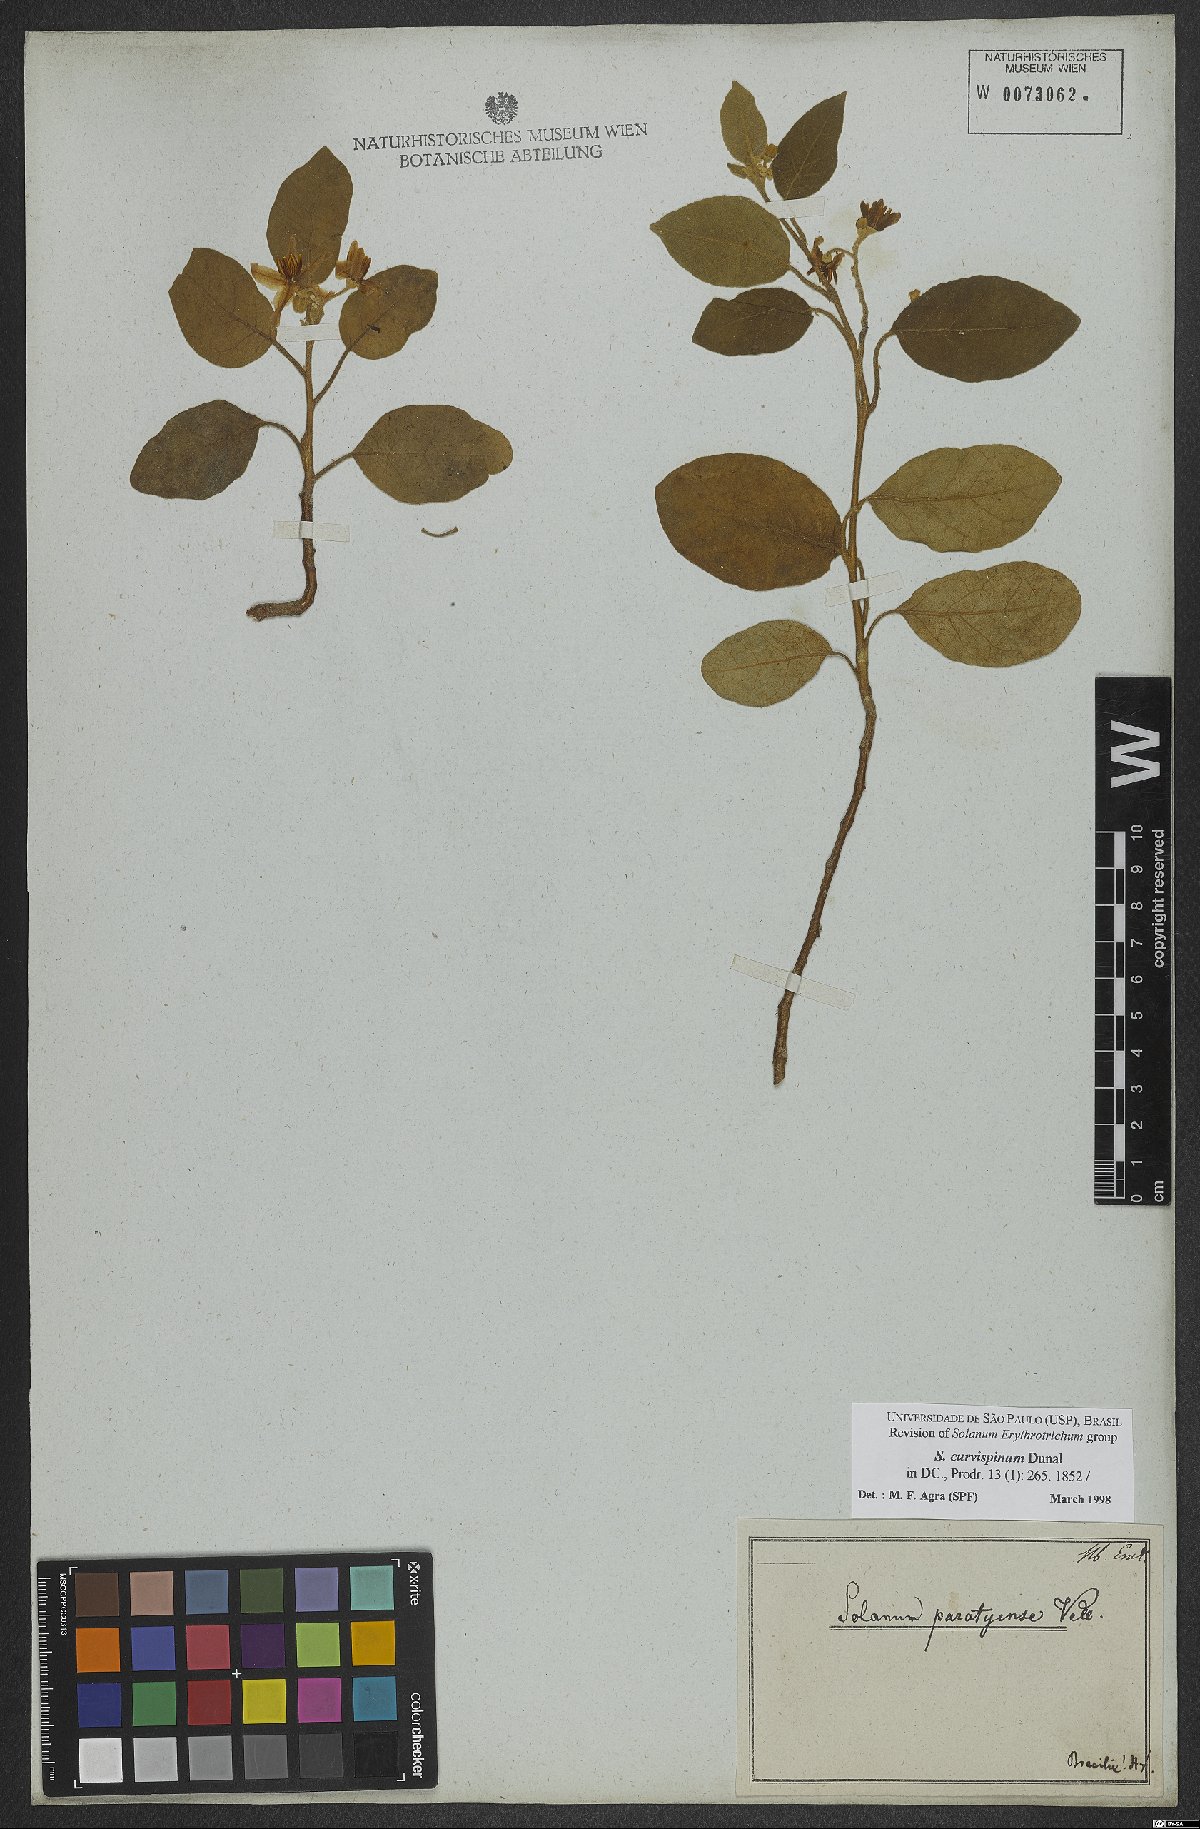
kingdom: Plantae
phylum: Tracheophyta
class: Magnoliopsida
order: Solanales
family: Solanaceae
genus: Solanum
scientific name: Solanum jussiaei
